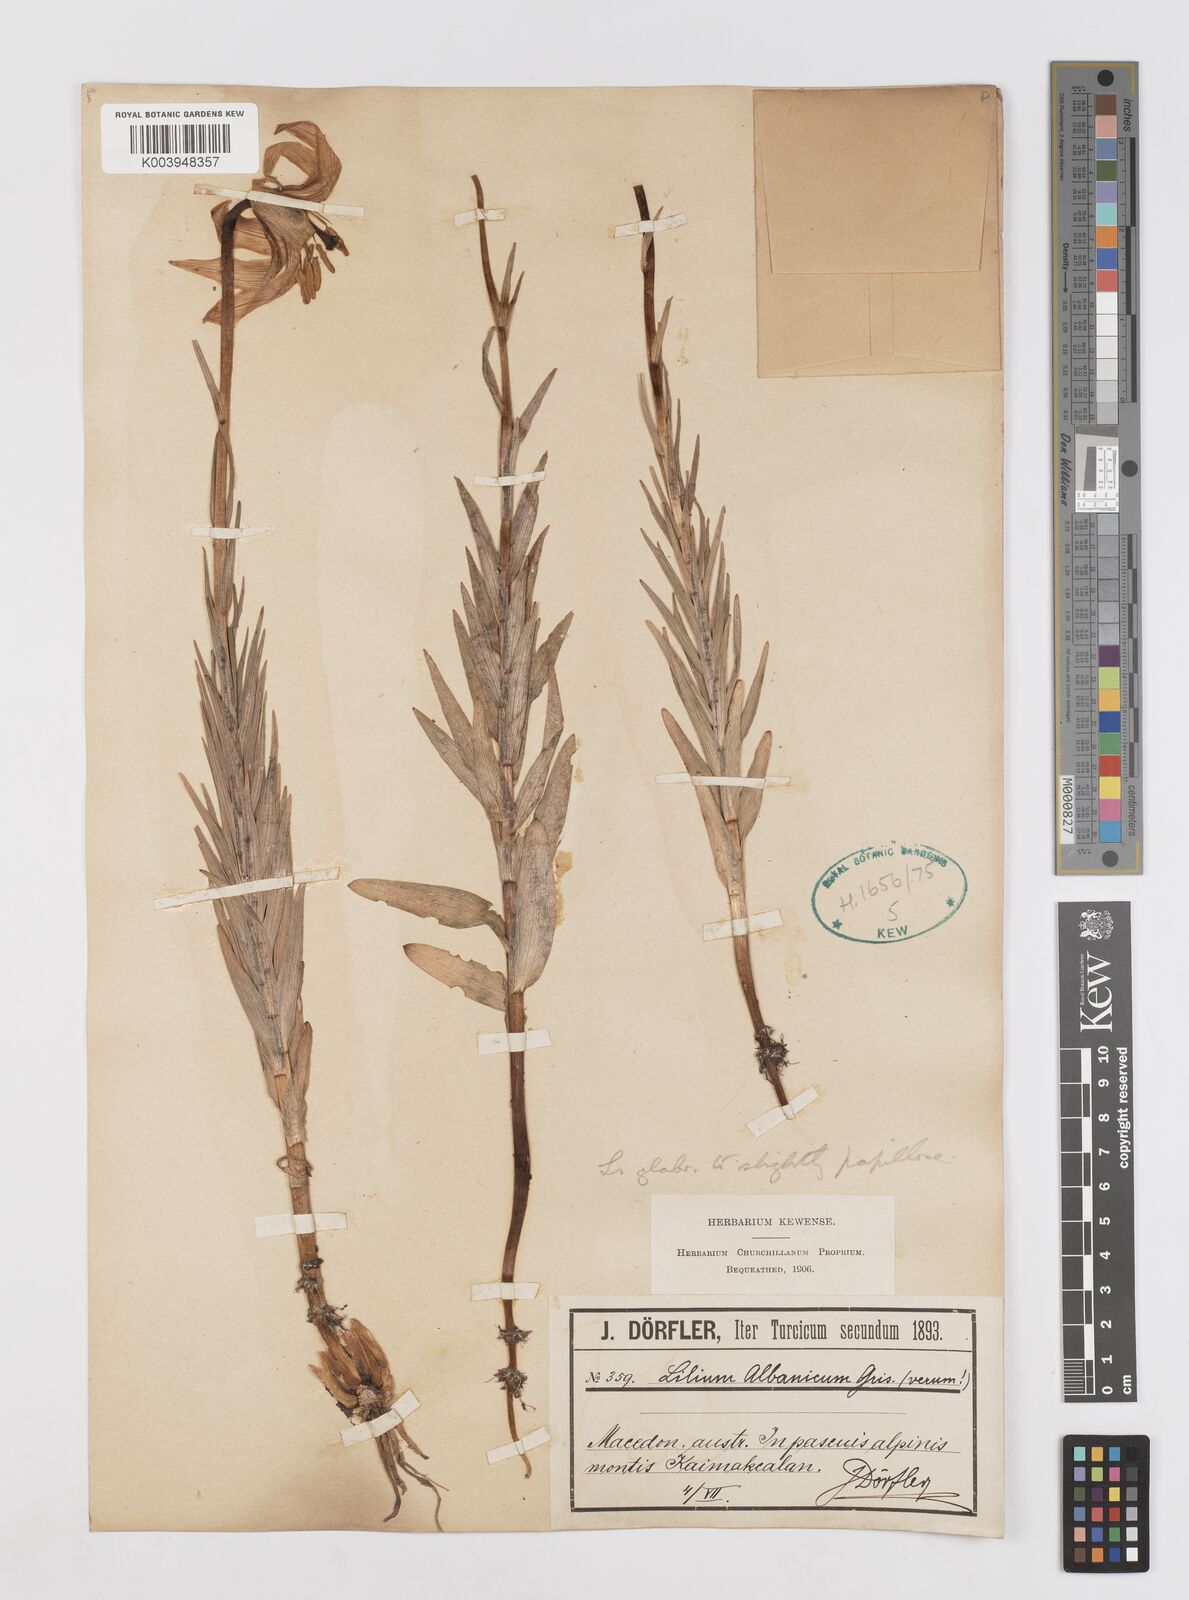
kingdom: Plantae
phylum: Tracheophyta
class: Liliopsida
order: Liliales
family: Liliaceae
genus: Lilium
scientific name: Lilium
